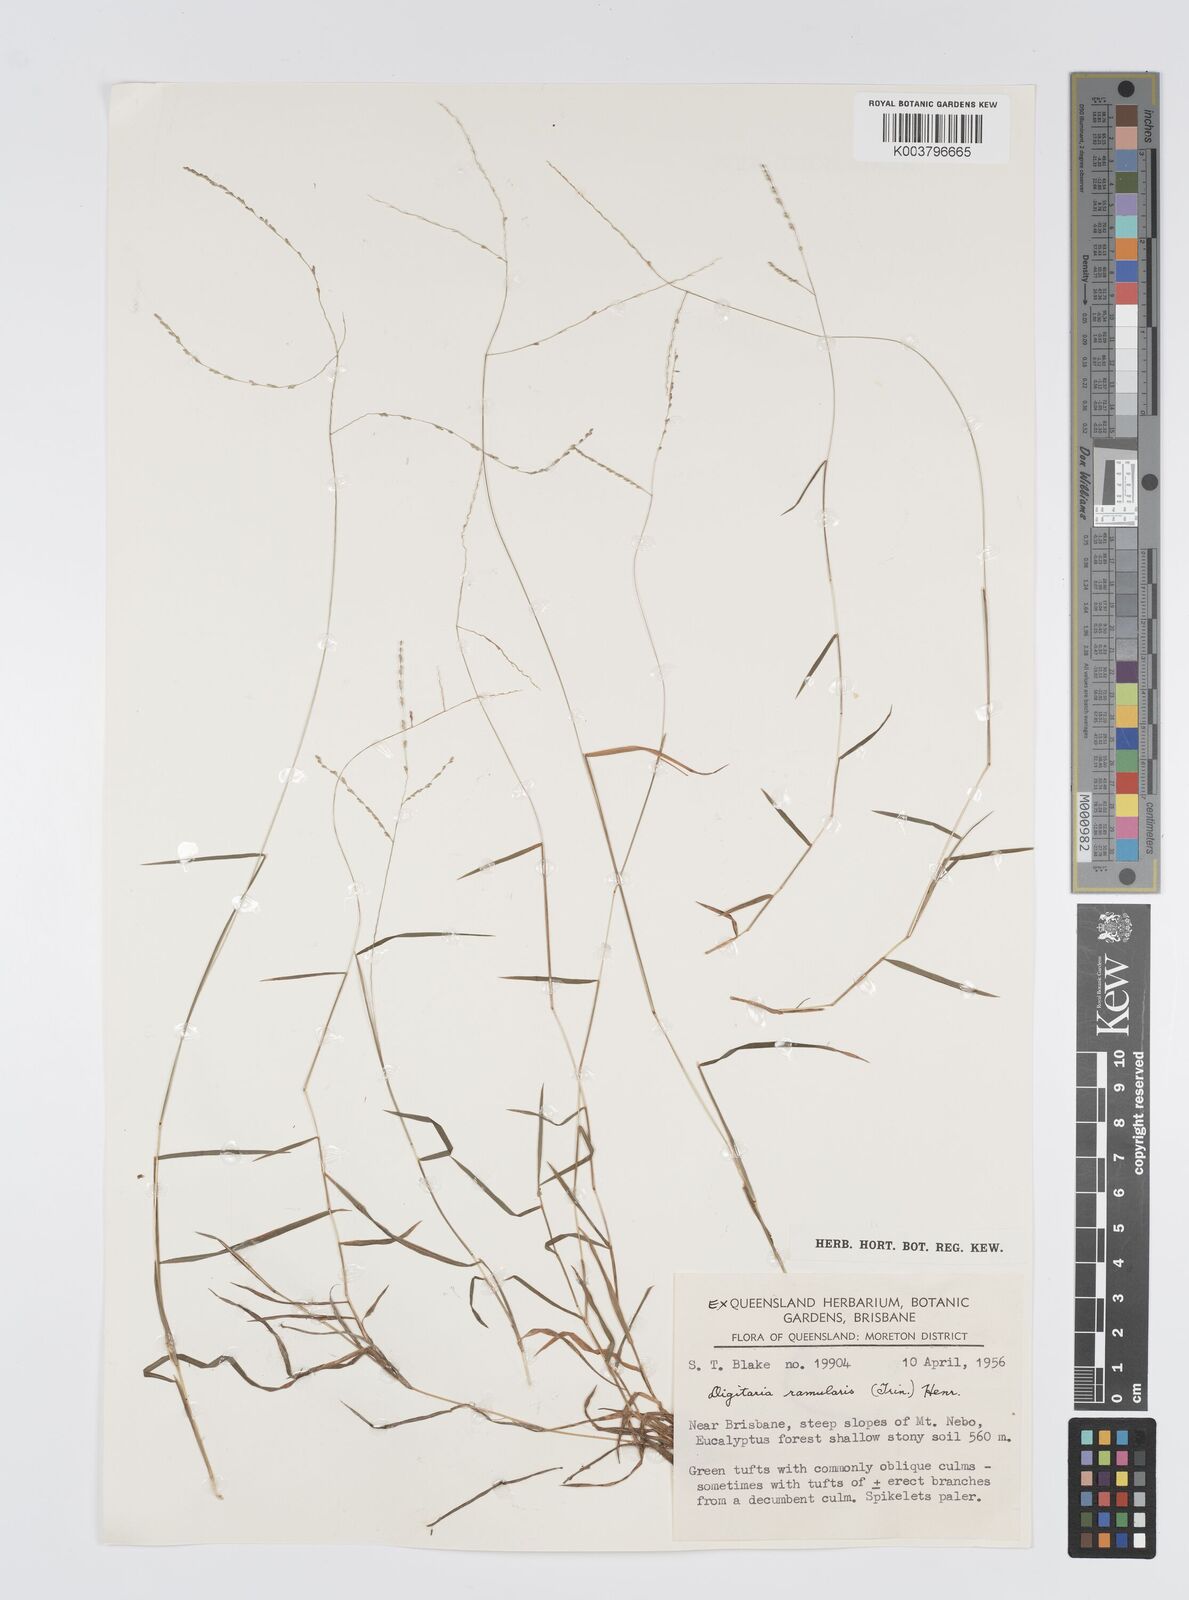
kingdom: Plantae
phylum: Tracheophyta
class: Liliopsida
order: Poales
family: Poaceae
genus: Digitaria
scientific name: Digitaria ramularis
